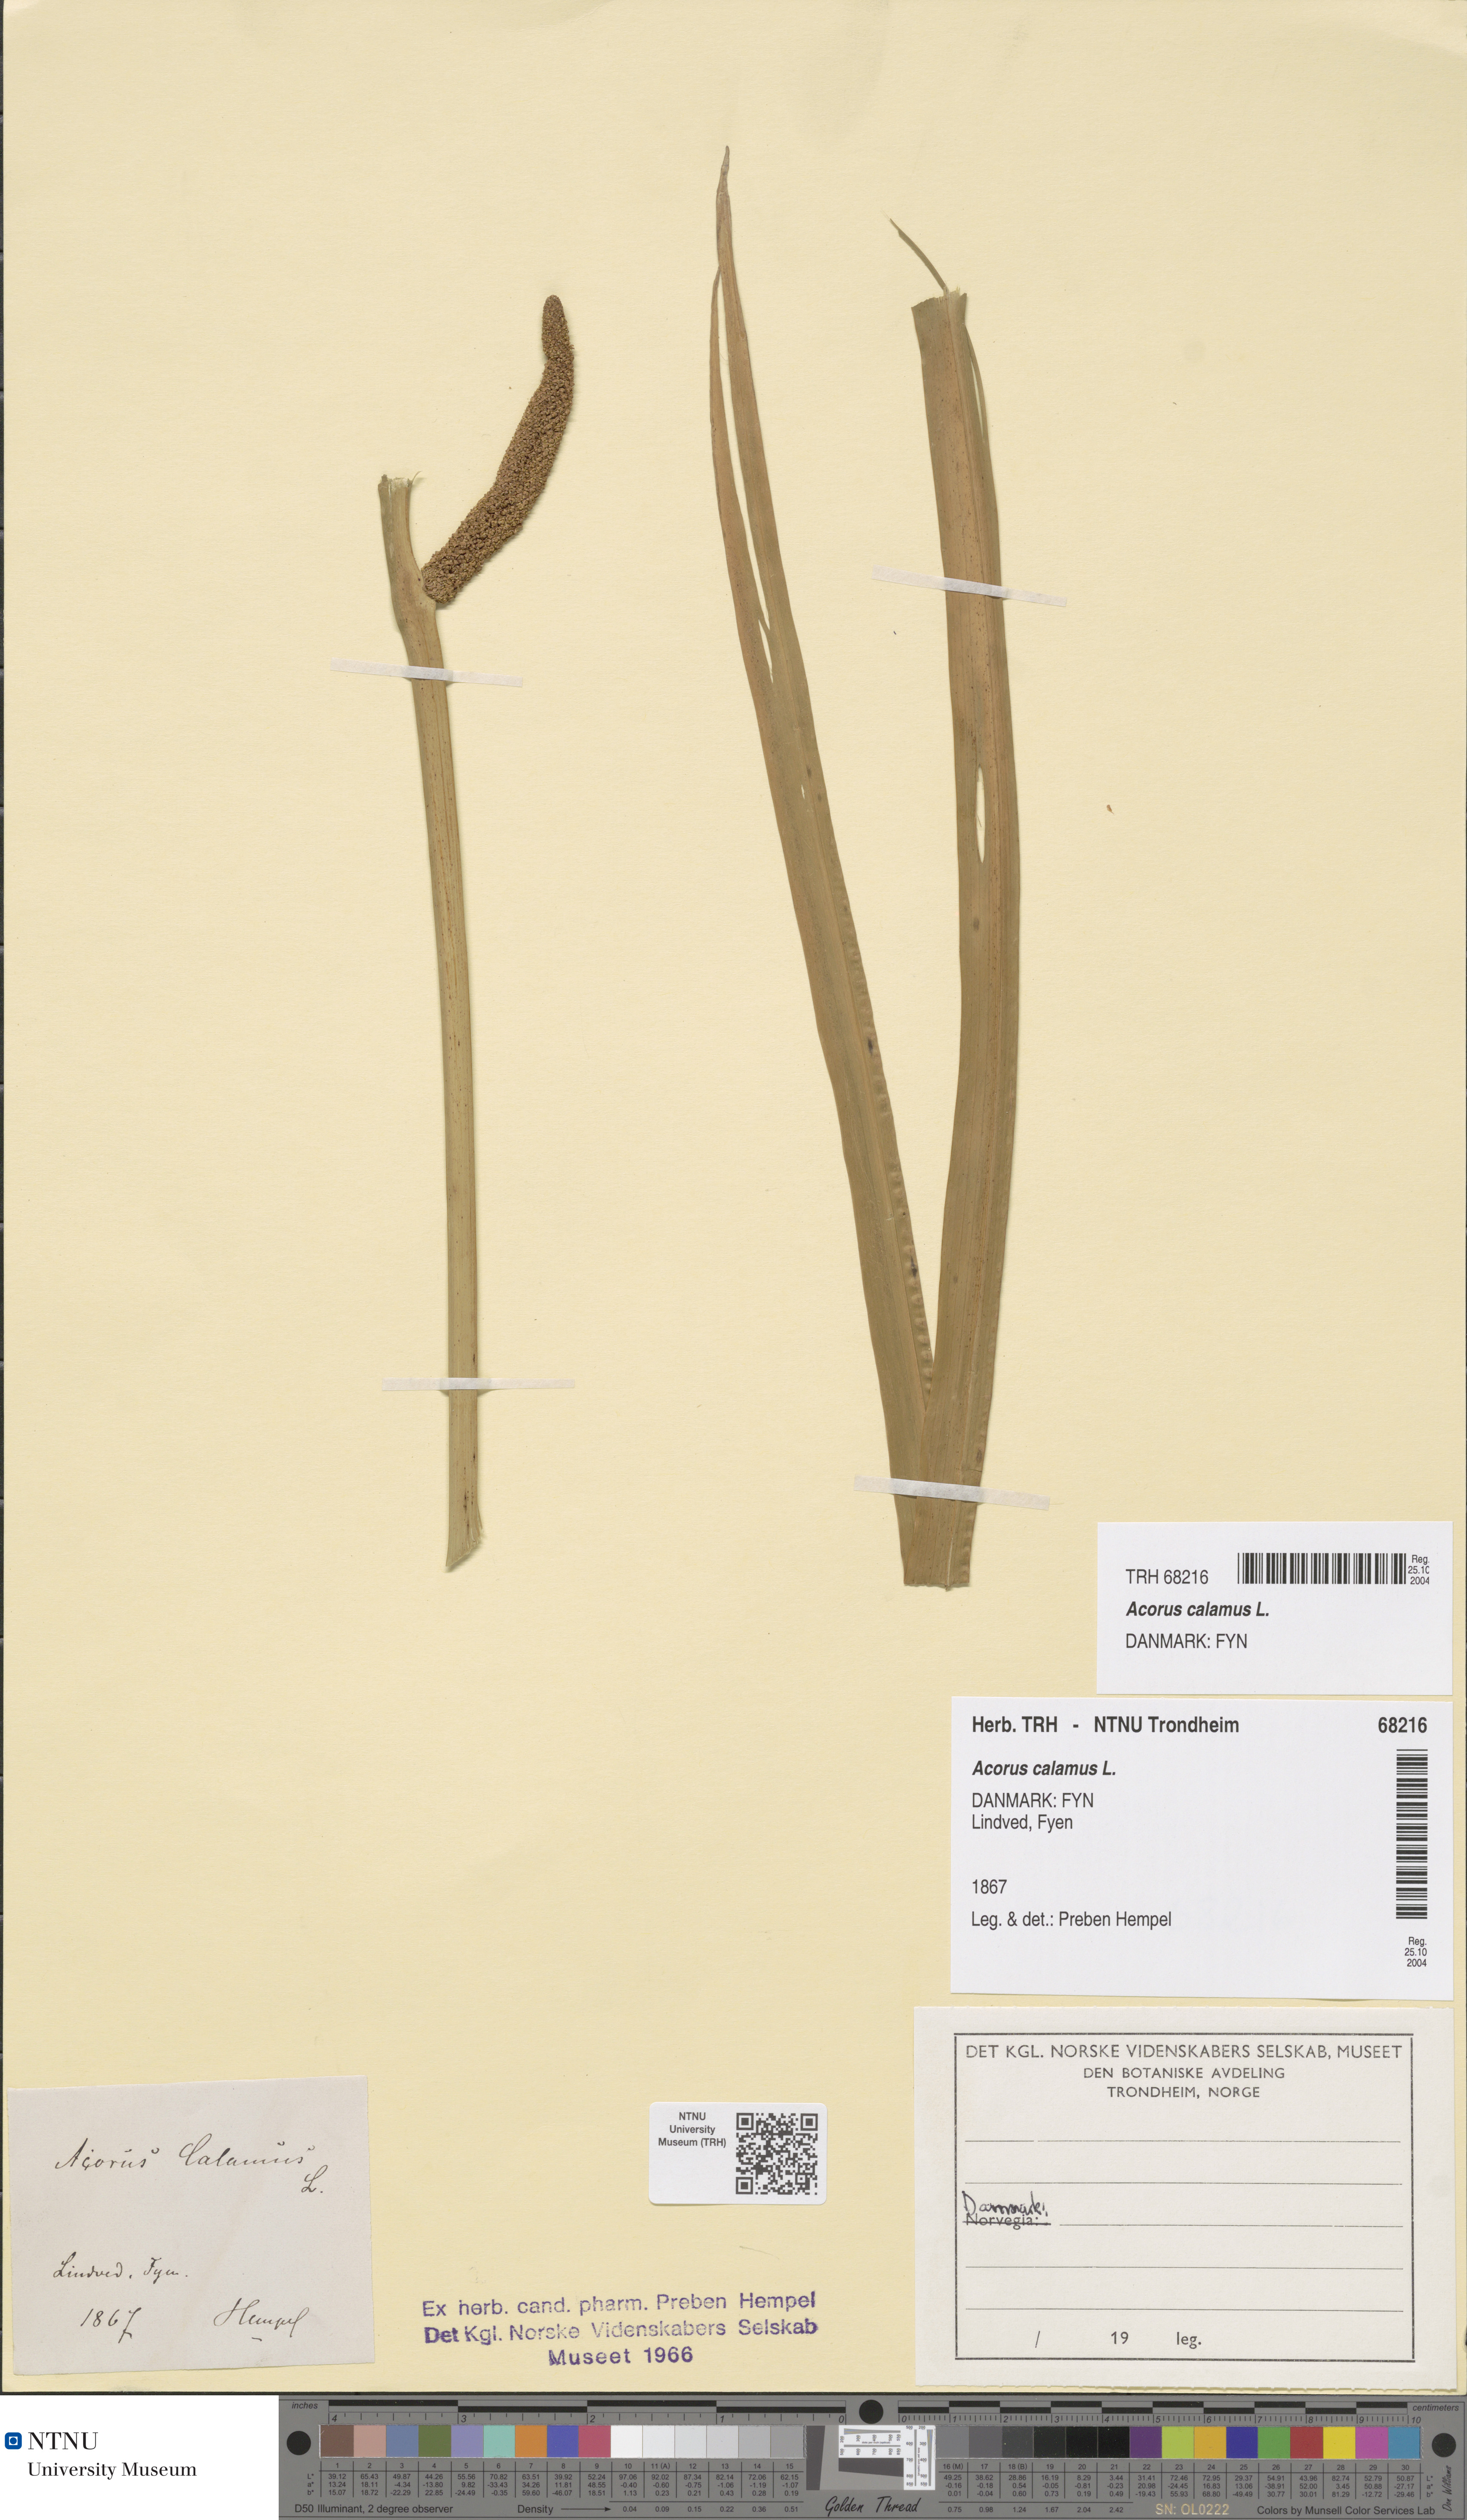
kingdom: Plantae
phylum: Tracheophyta
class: Liliopsida
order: Acorales
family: Acoraceae
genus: Acorus
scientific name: Acorus calamus
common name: Sweet-flag
